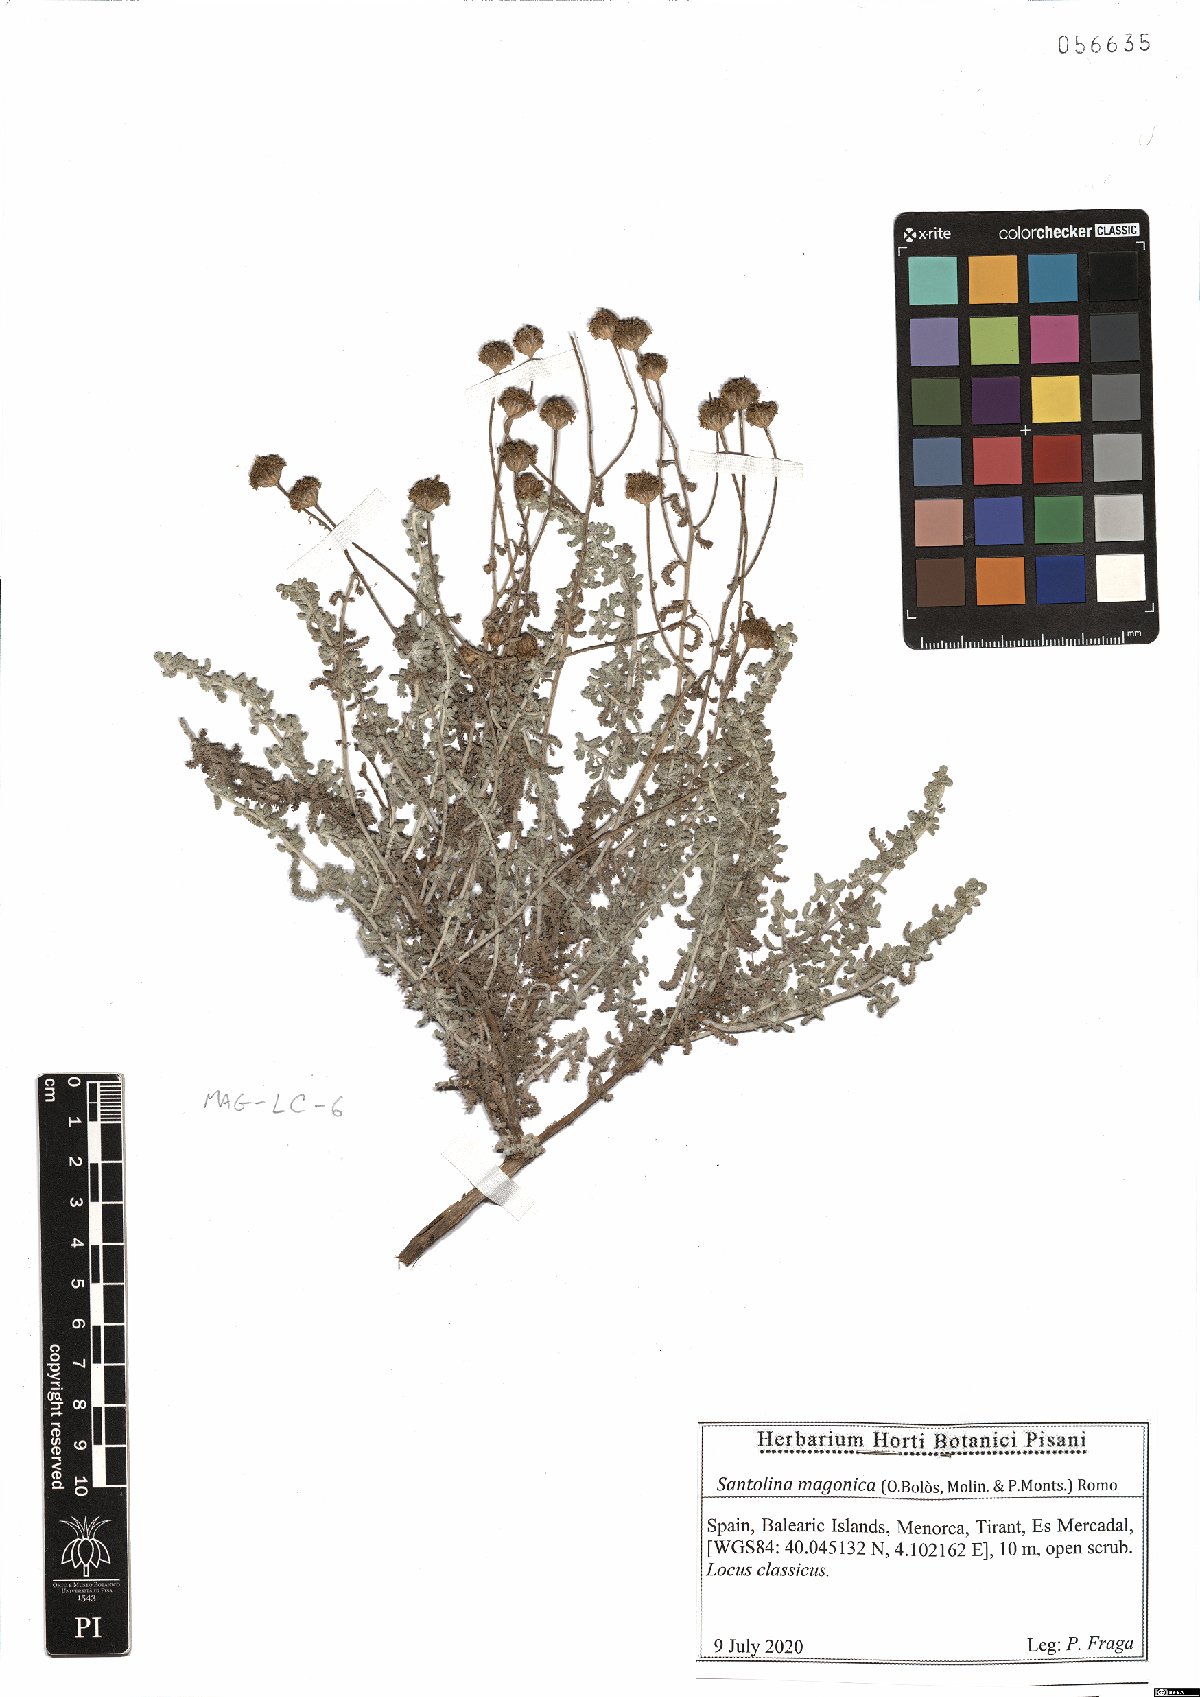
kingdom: Plantae
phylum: Tracheophyta
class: Magnoliopsida
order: Asterales
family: Asteraceae
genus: Santolina
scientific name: Santolina magonica
